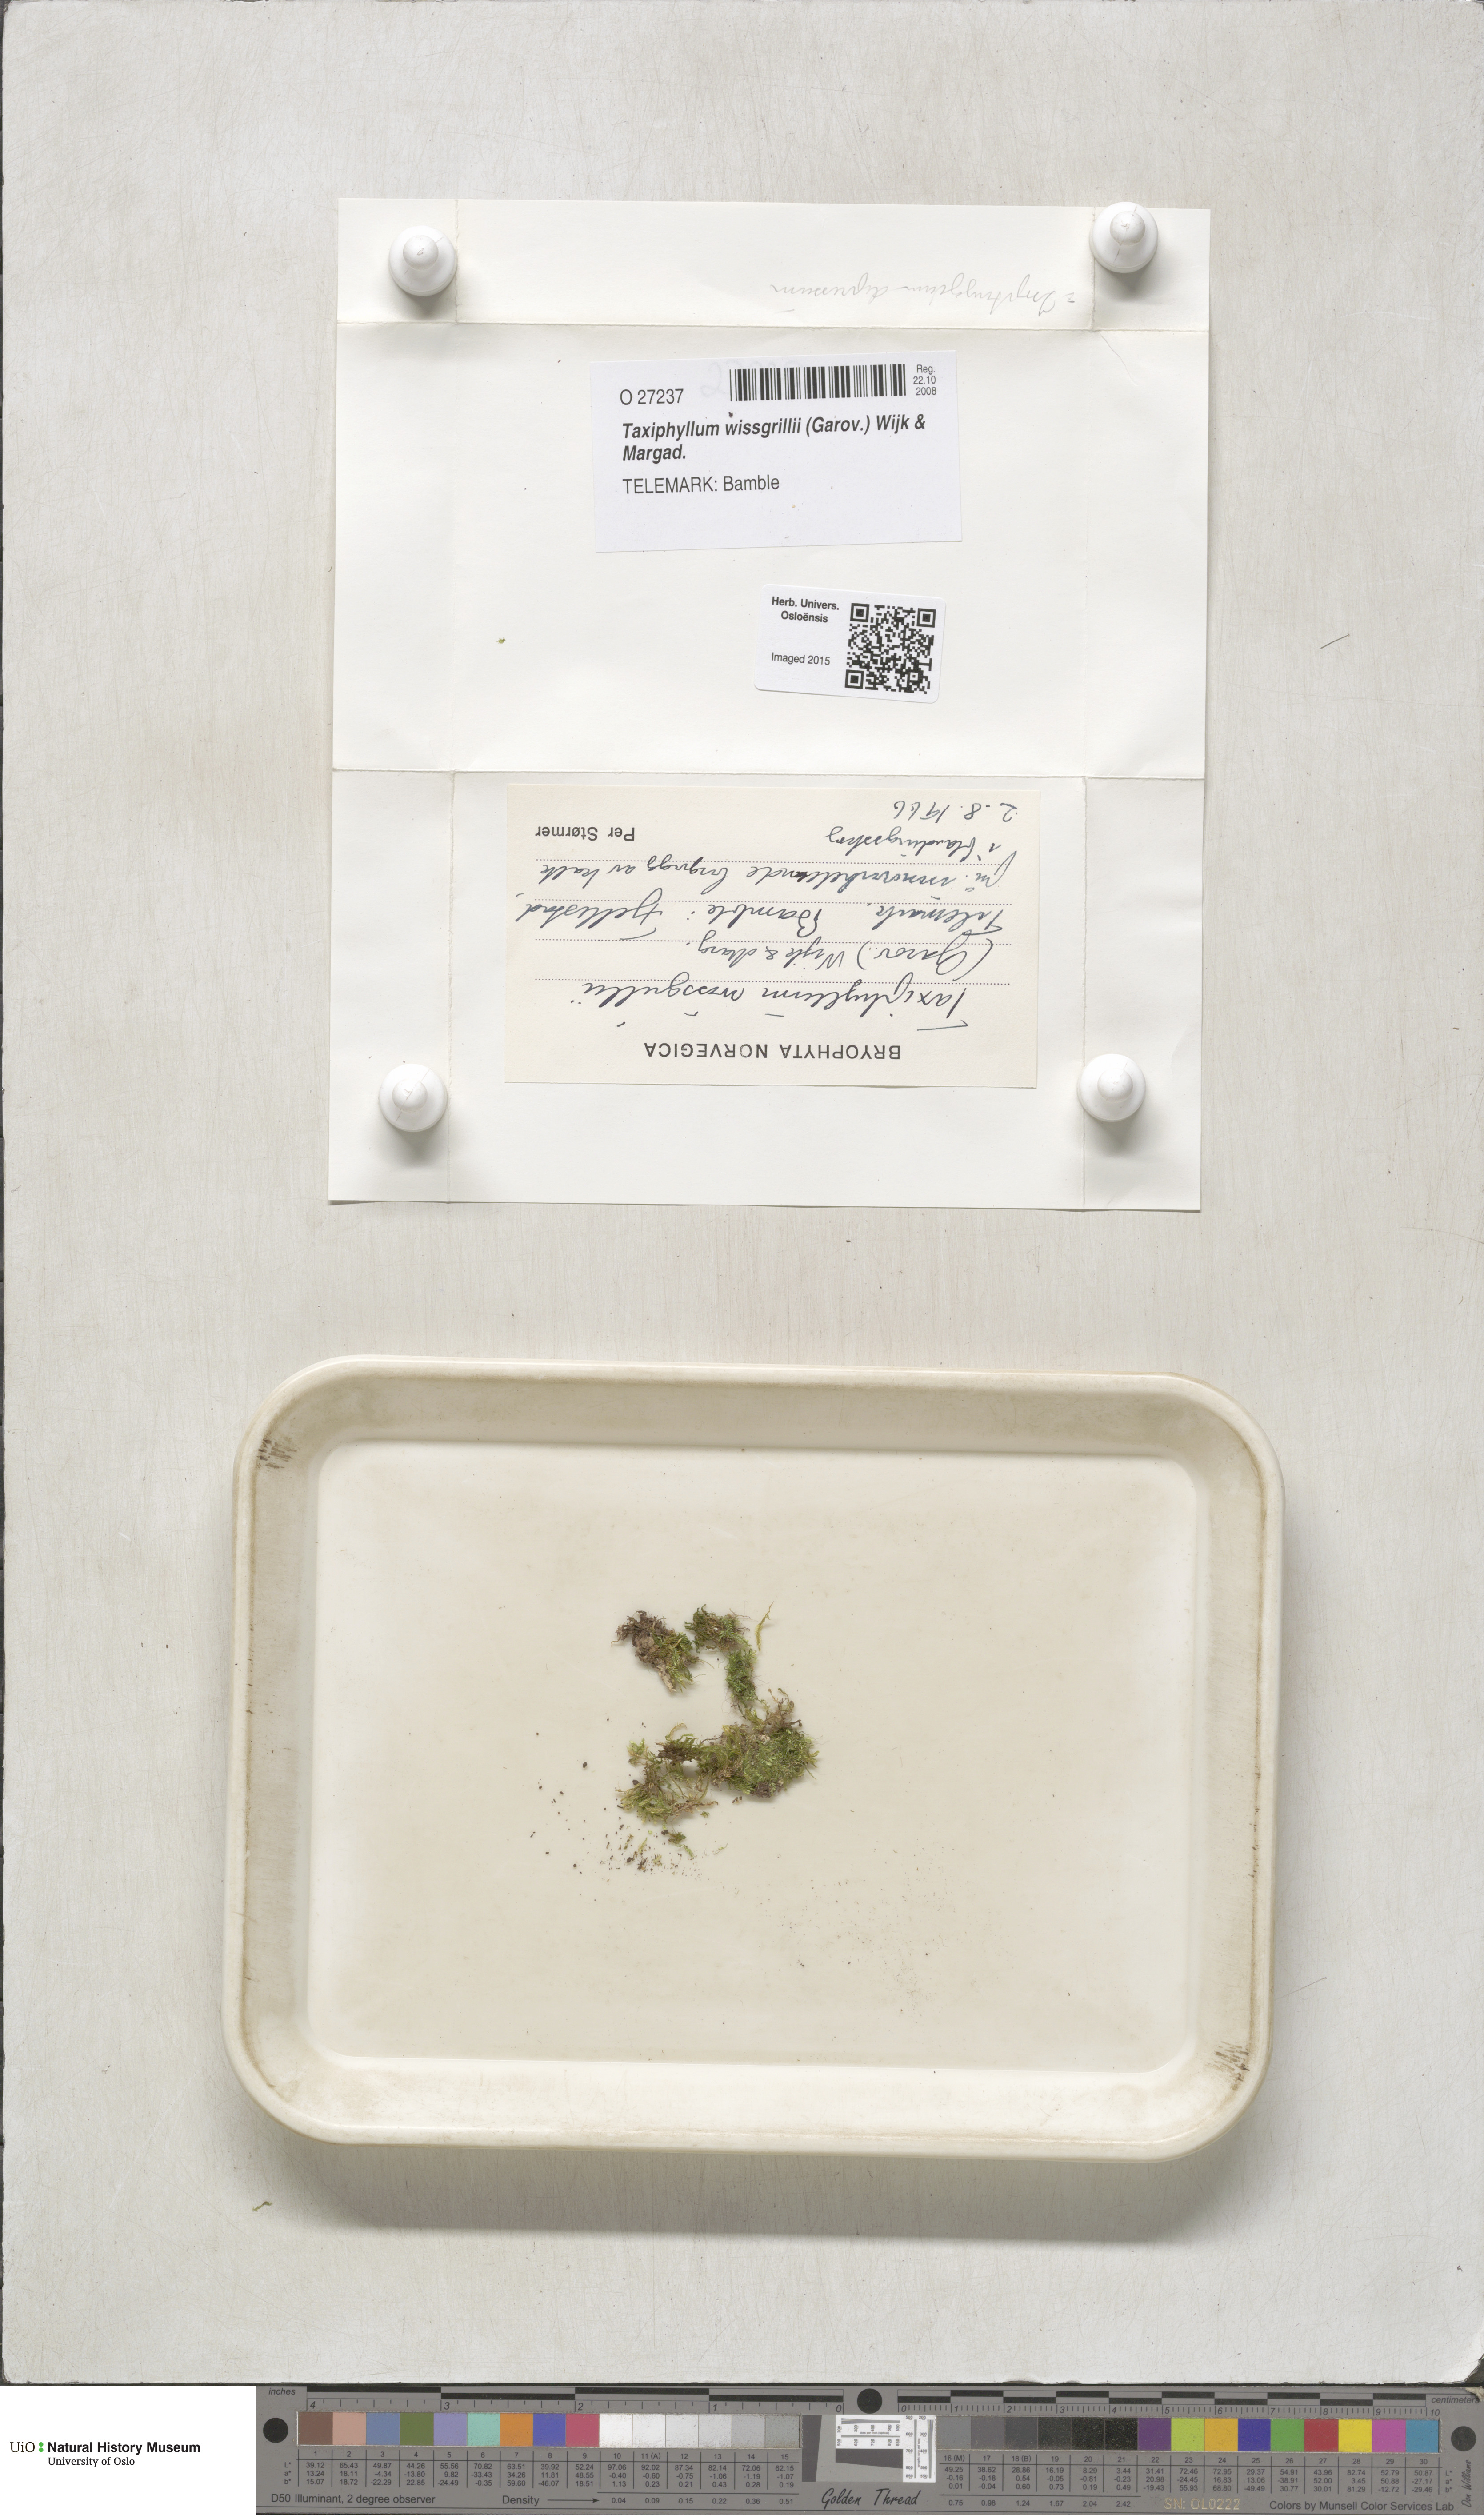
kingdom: Plantae
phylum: Bryophyta
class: Bryopsida
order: Hypnales
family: Taxiphyllaceae
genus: Taxiphyllum
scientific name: Taxiphyllum wissgrillii
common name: Depressed feather-moss
